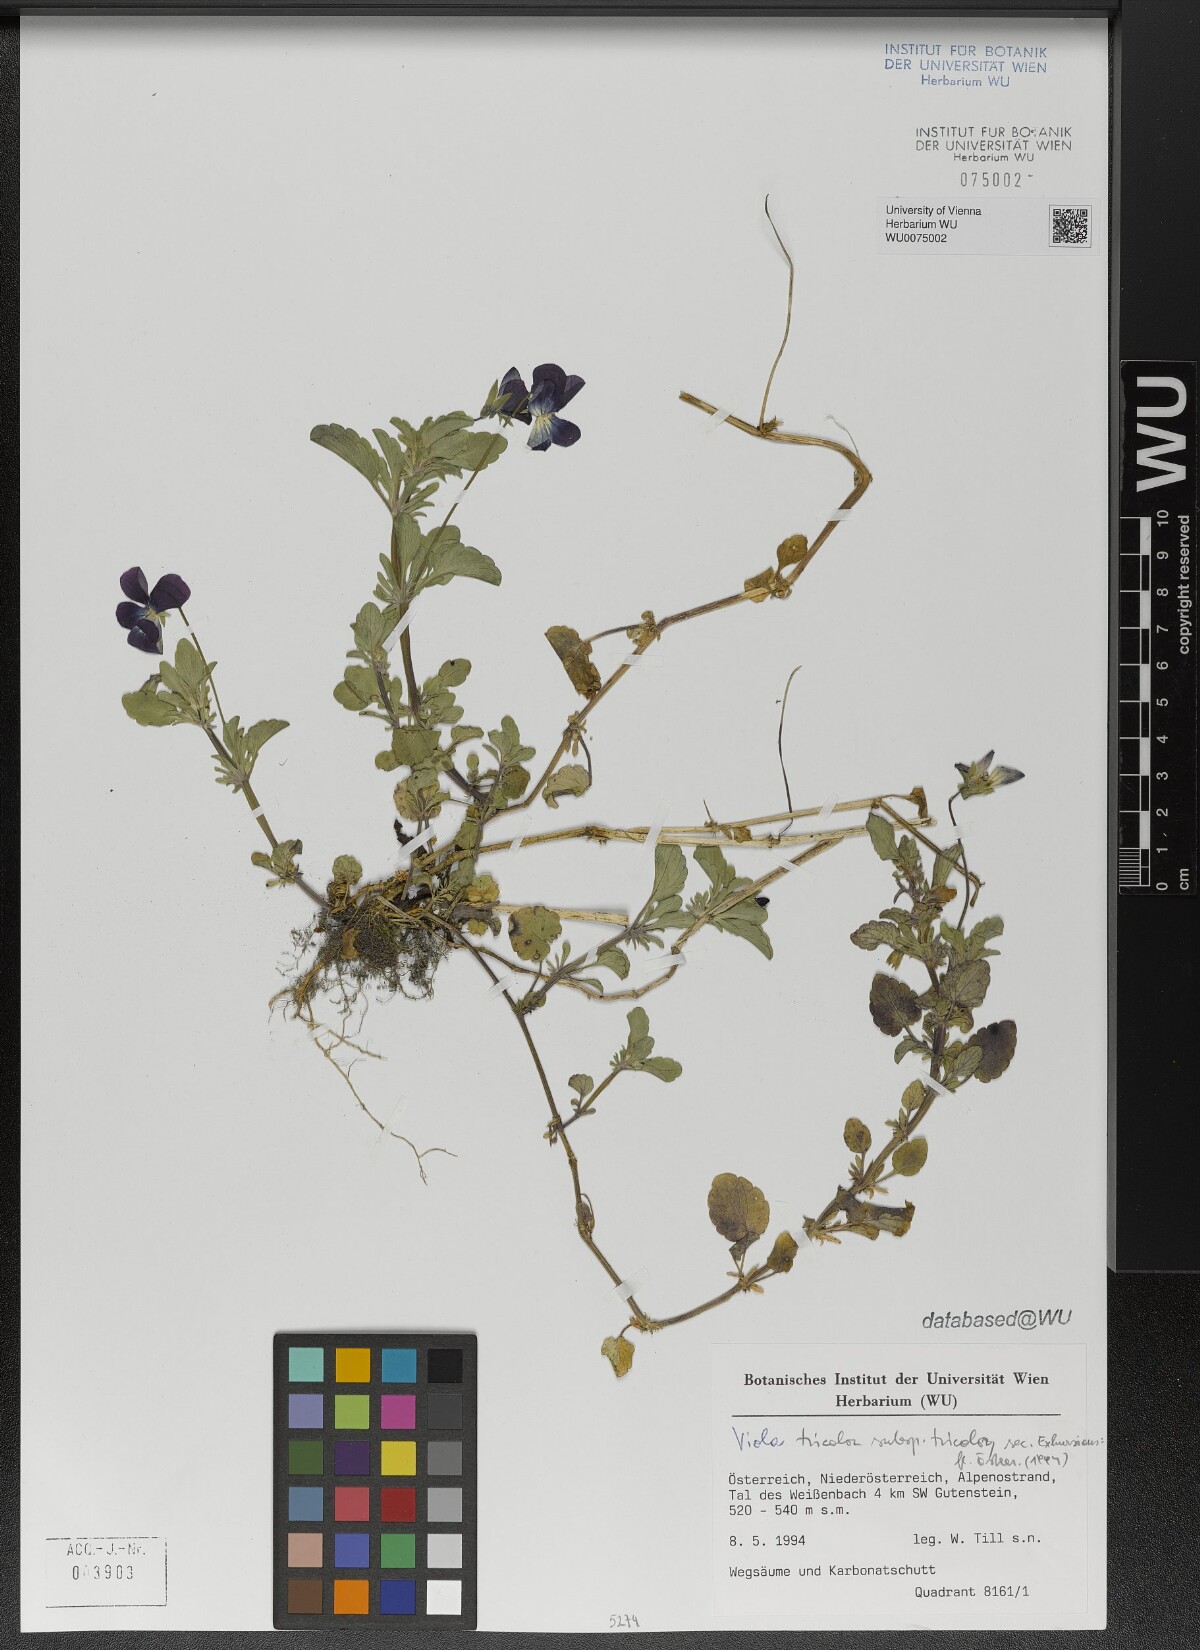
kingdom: Plantae
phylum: Tracheophyta
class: Magnoliopsida
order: Malpighiales
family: Violaceae
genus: Viola
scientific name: Viola tricolor
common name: Pansy
